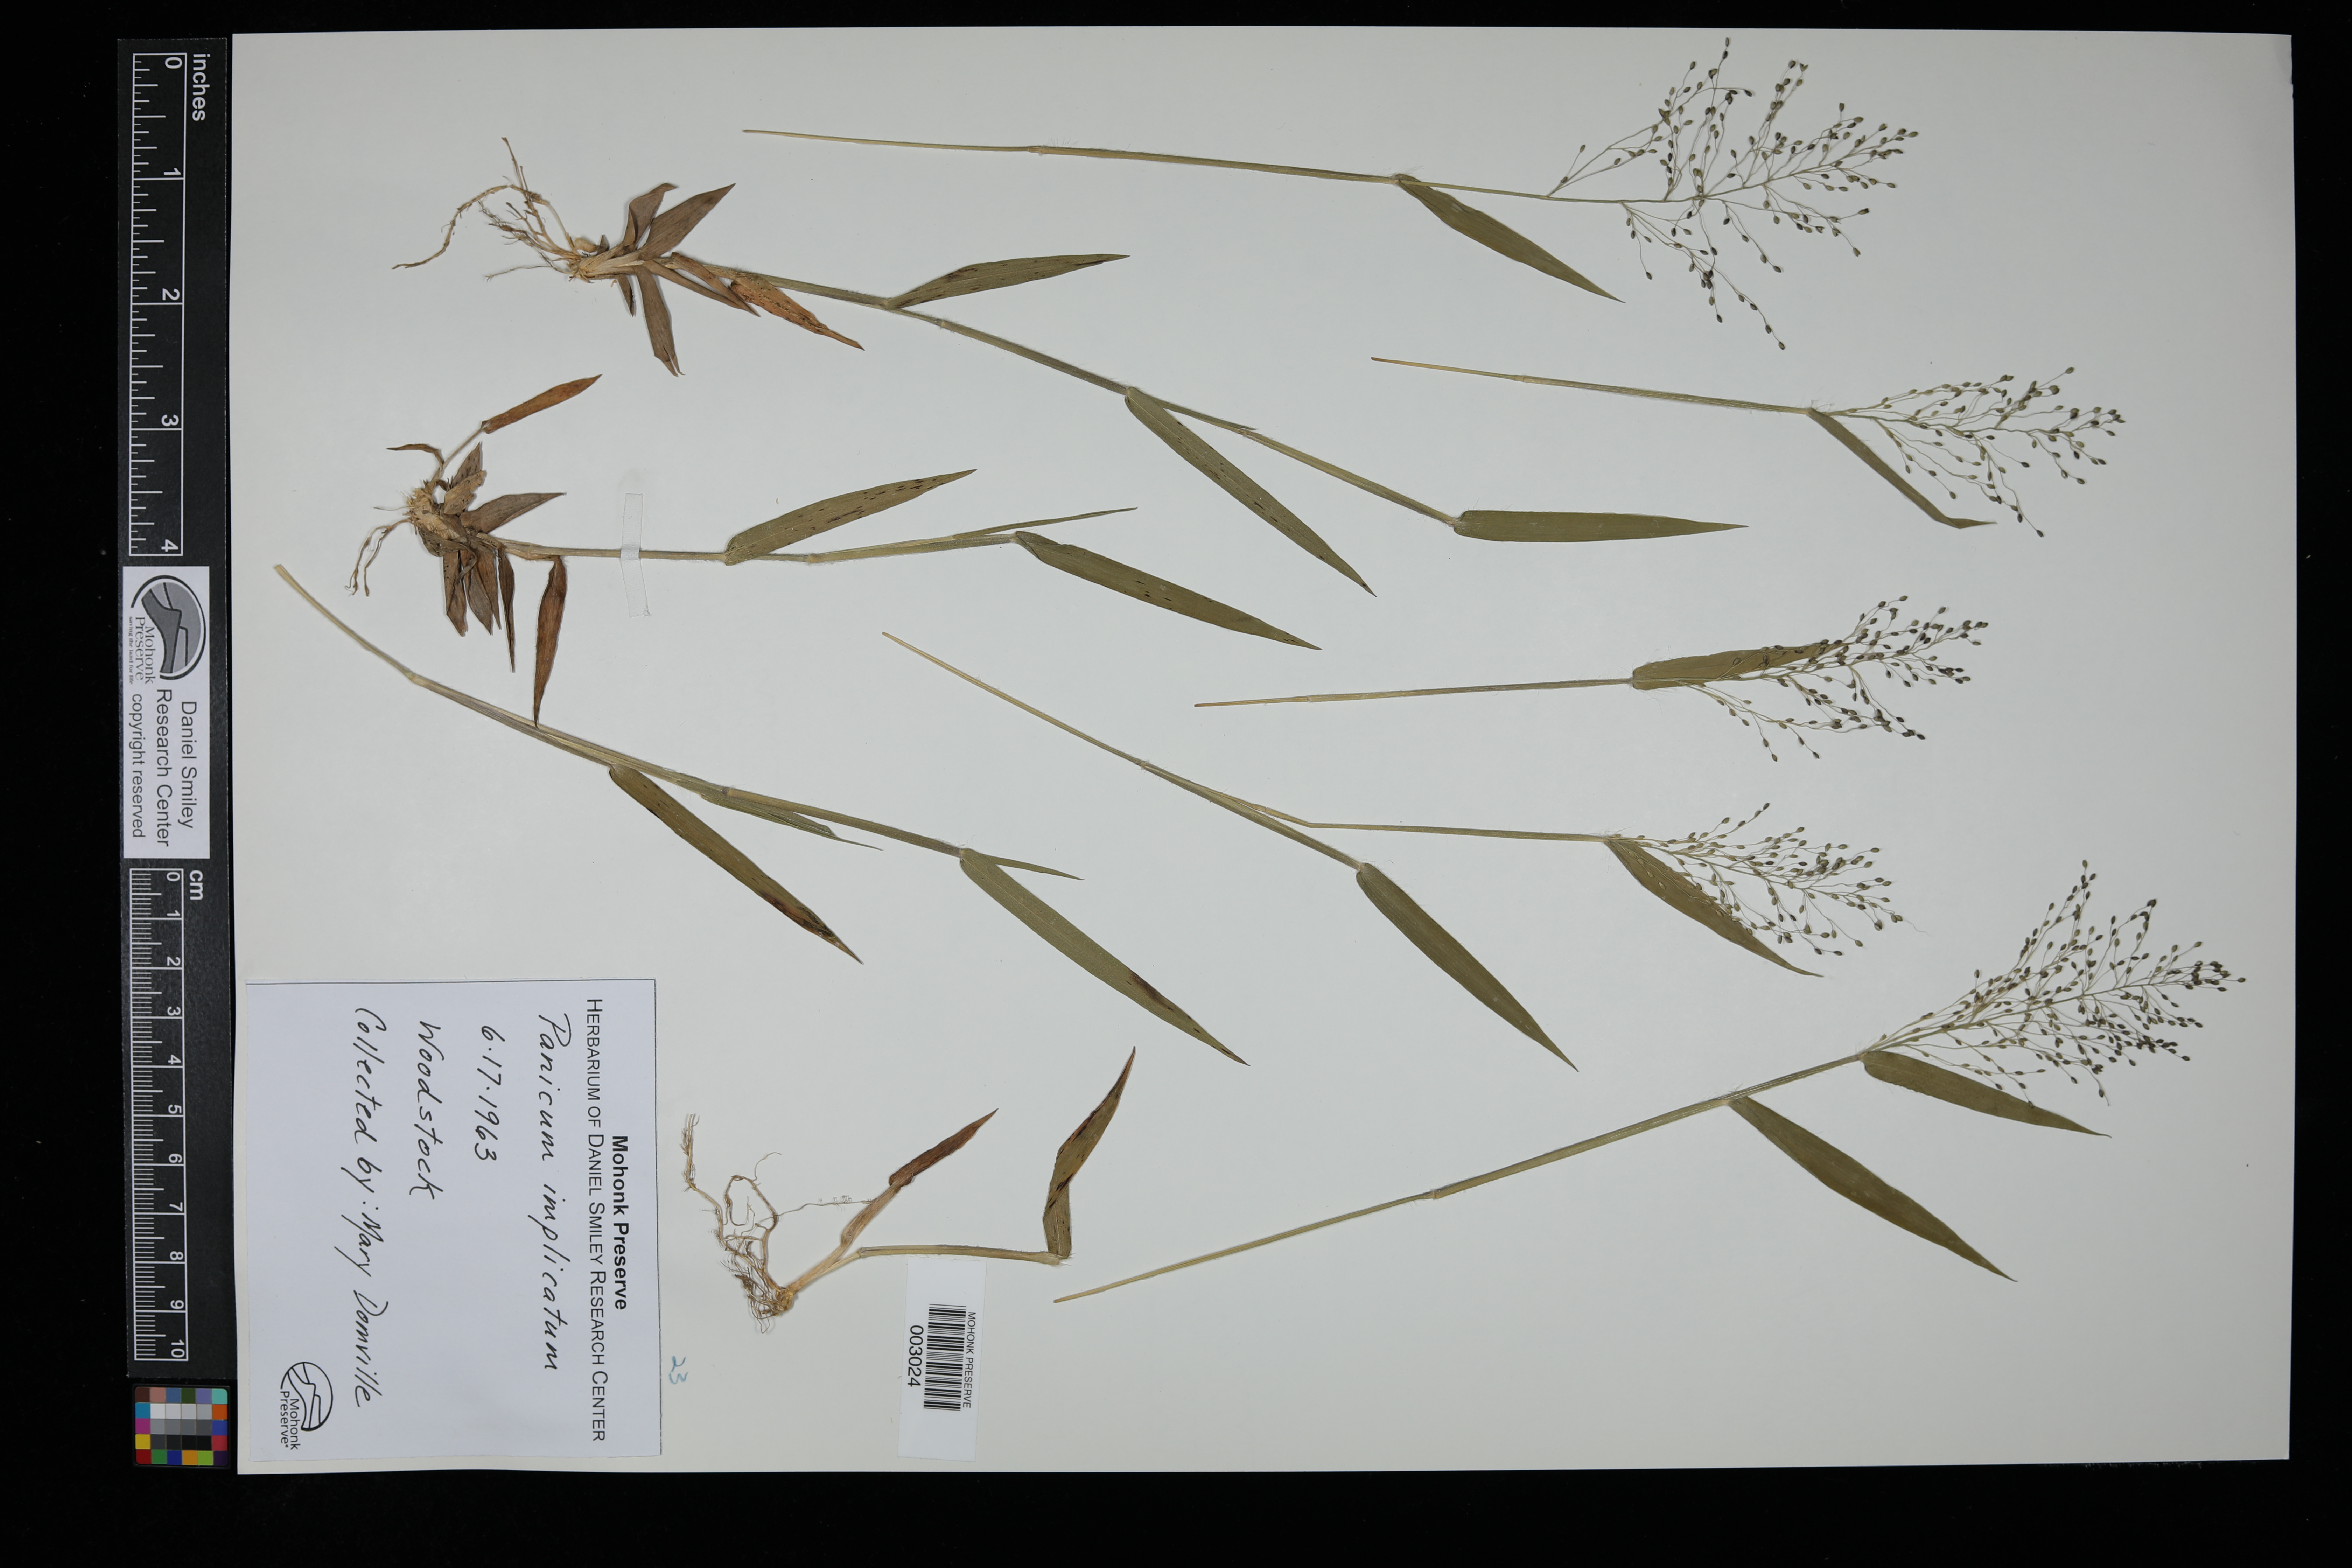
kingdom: Plantae
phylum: Tracheophyta
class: Liliopsida
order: Poales
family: Poaceae
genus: Dichanthelium
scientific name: Dichanthelium acuminatum
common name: Hairy panic grass
